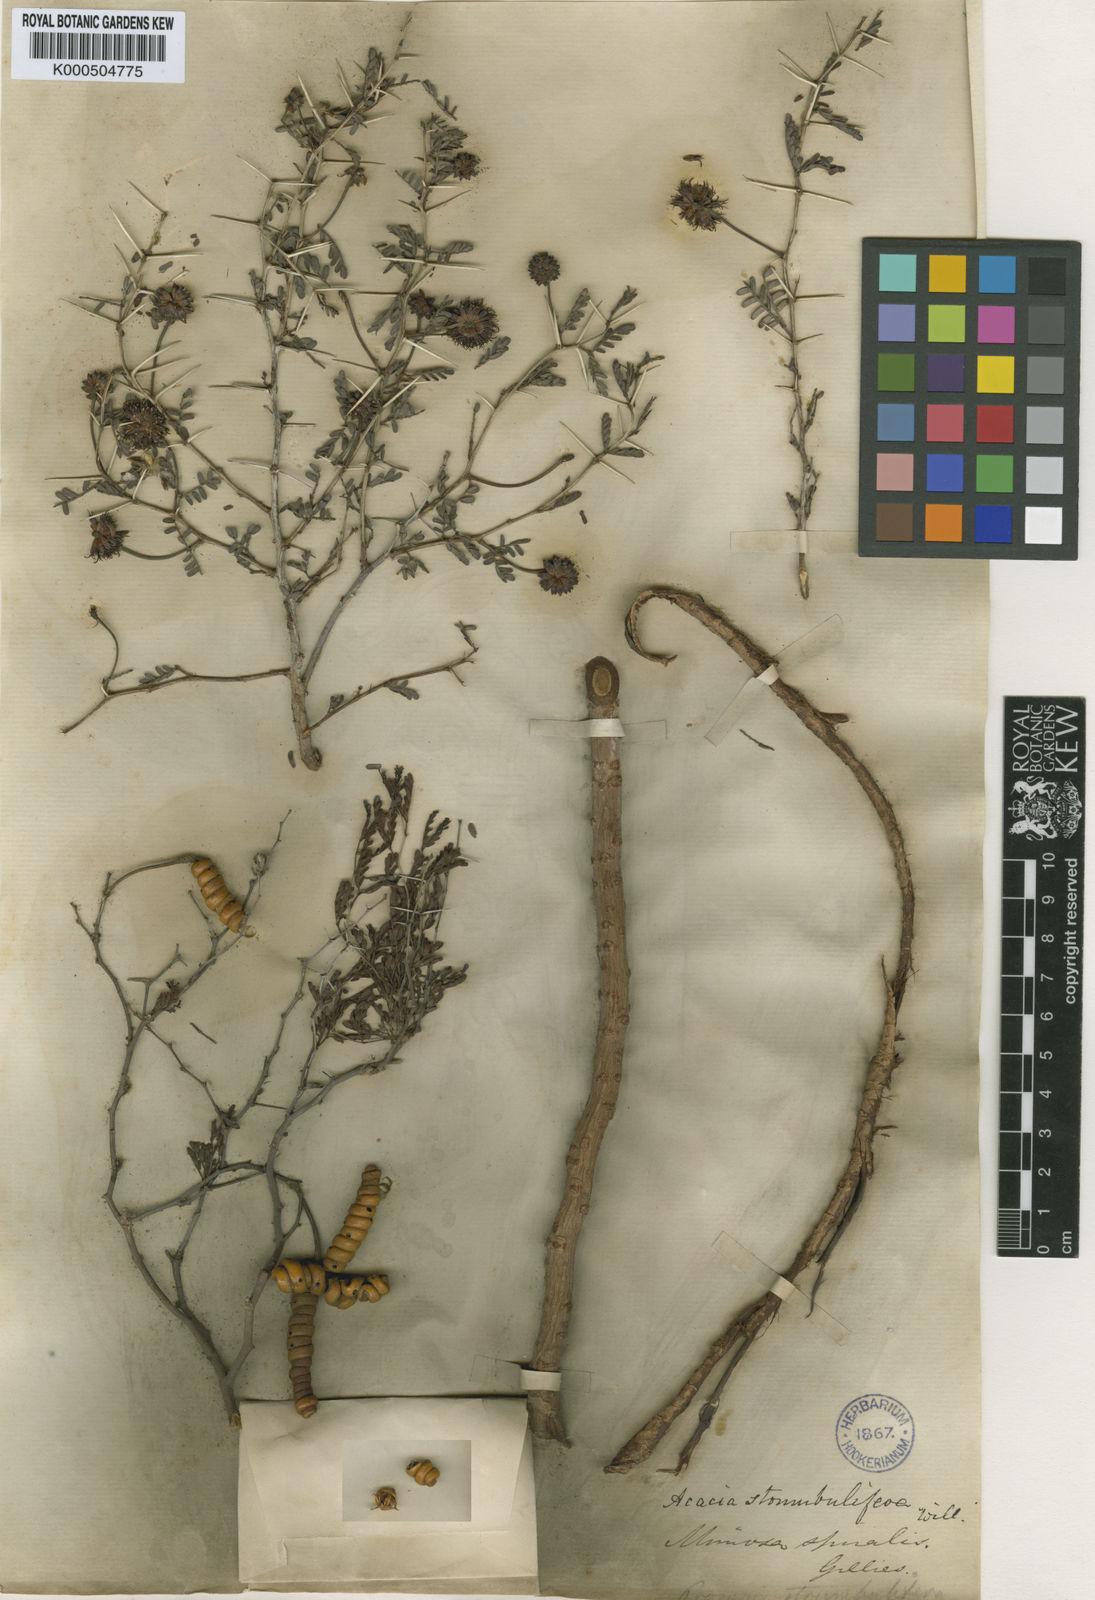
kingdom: Plantae
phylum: Tracheophyta
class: Magnoliopsida
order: Fabales
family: Fabaceae
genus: Prosopis
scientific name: Prosopis strombulifera
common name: Creeping mesquite
